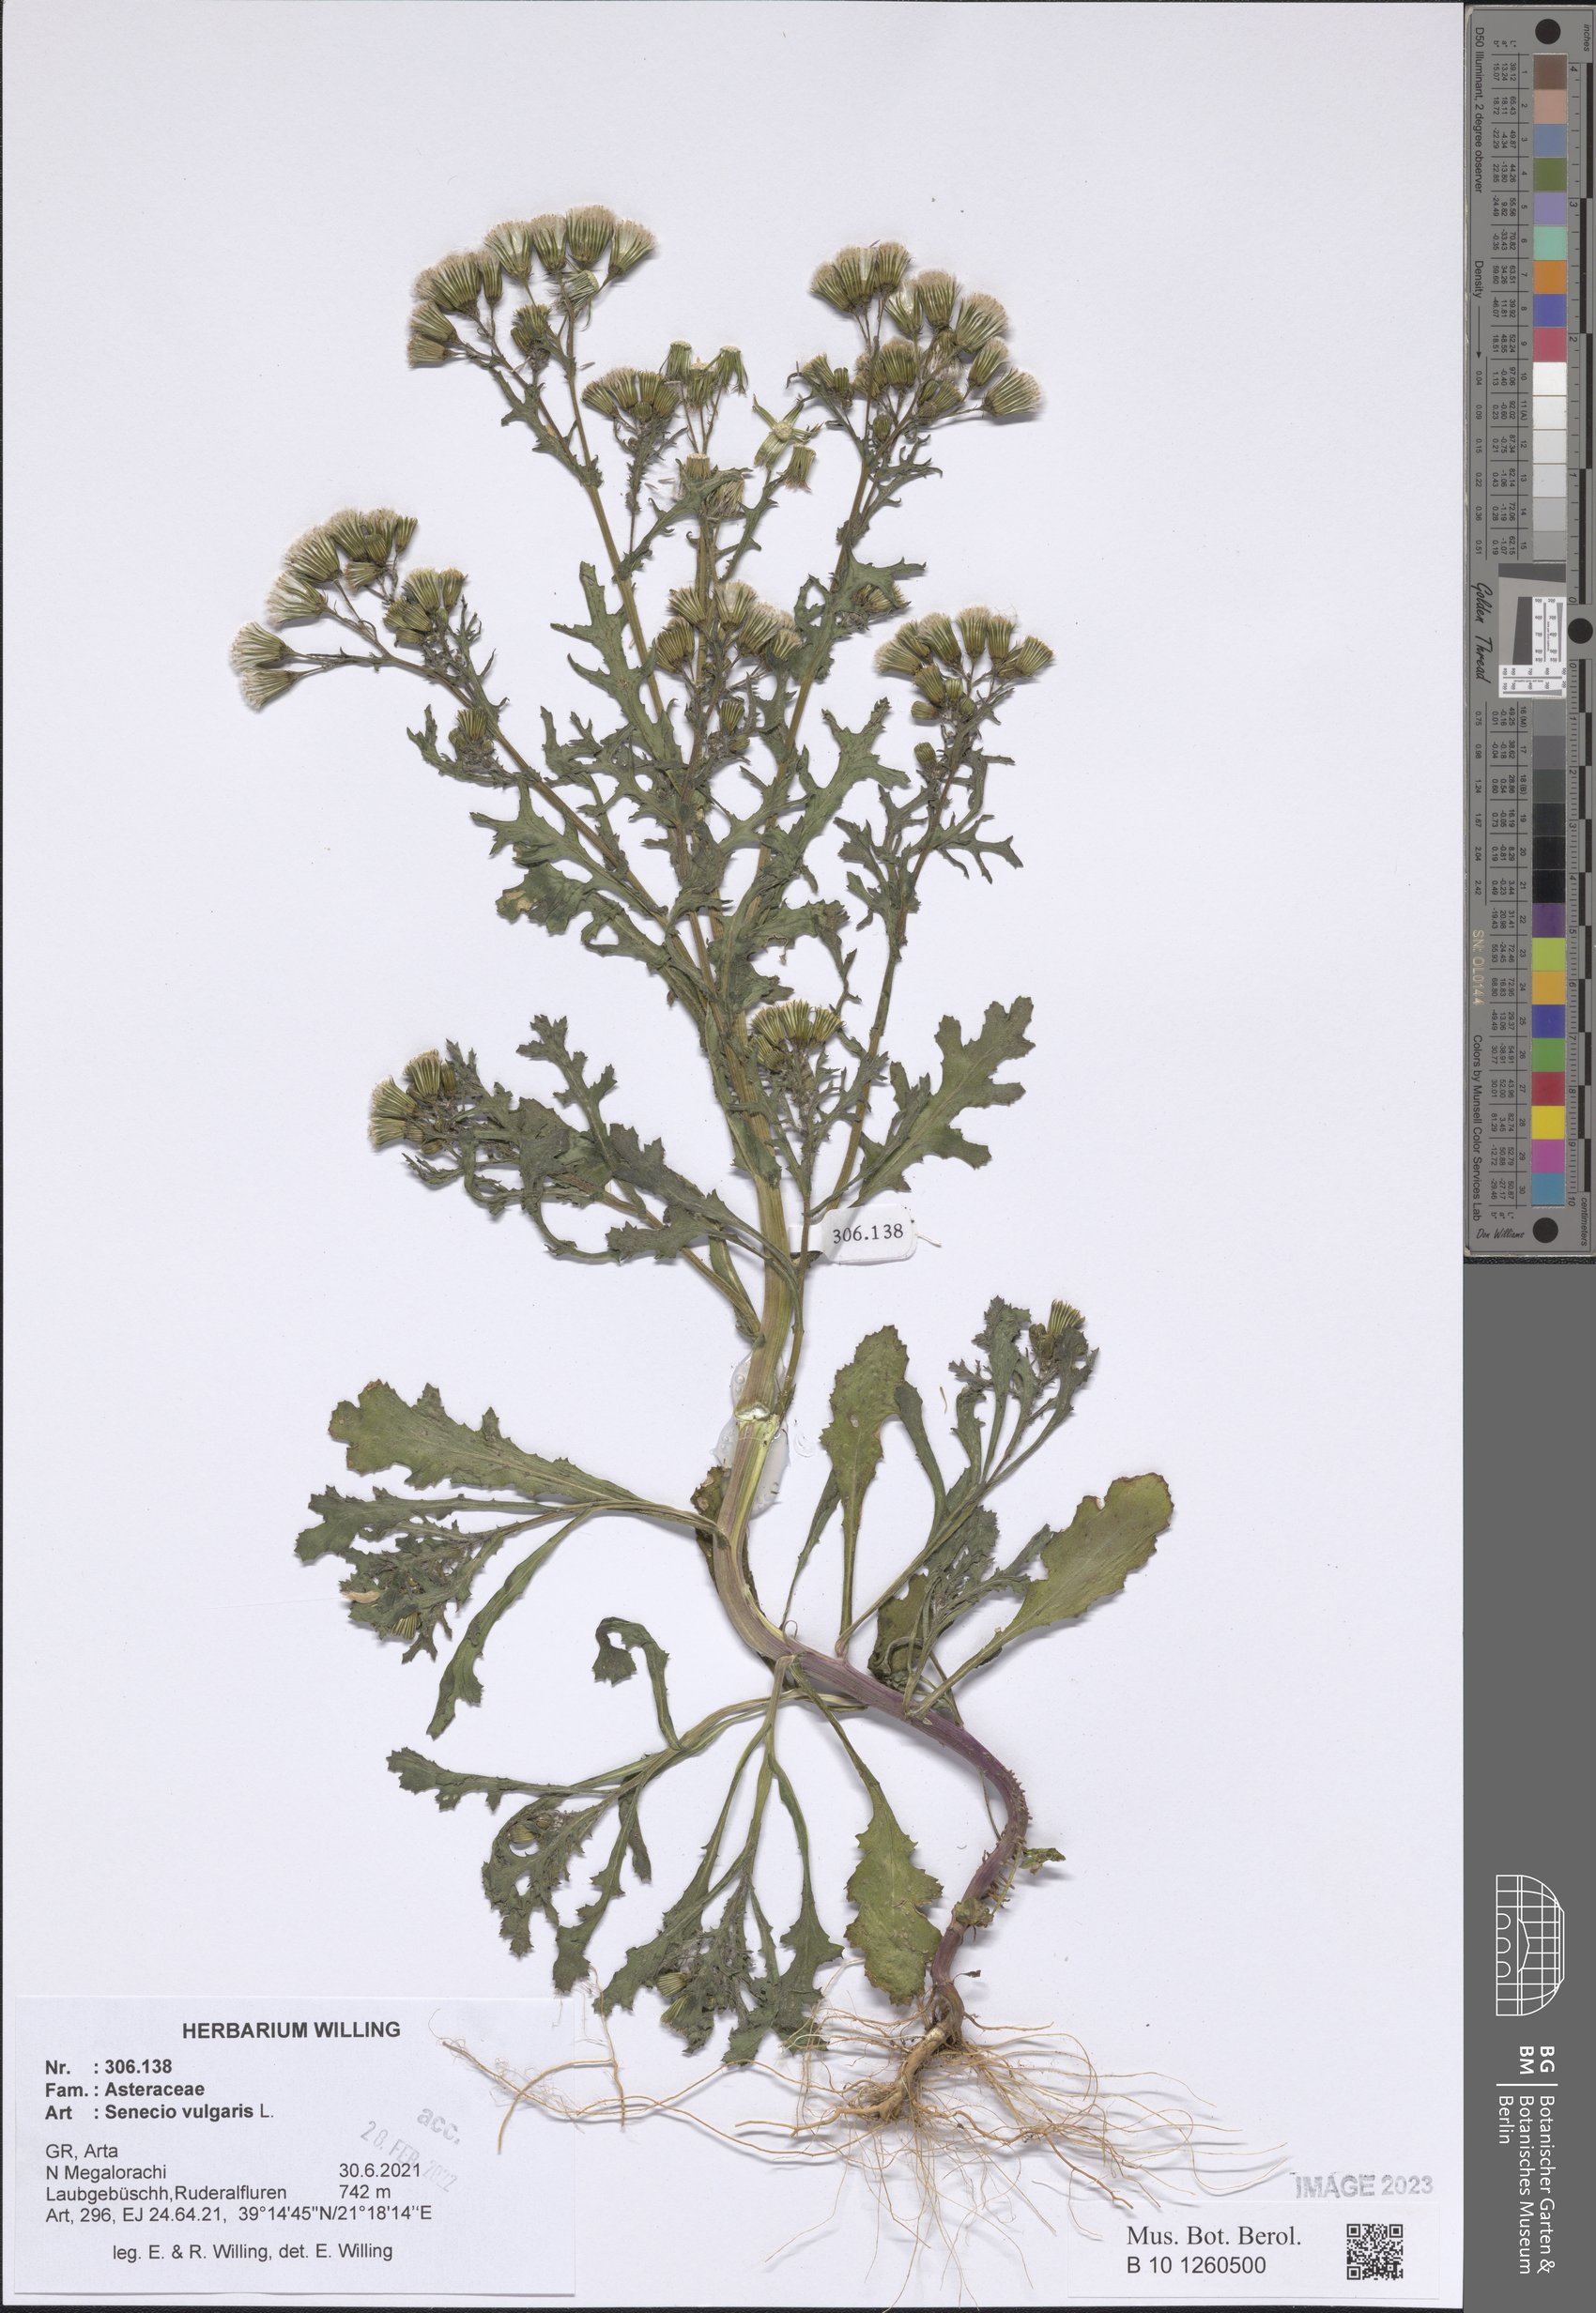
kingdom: Plantae
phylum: Tracheophyta
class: Magnoliopsida
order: Asterales
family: Asteraceae
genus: Senecio
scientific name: Senecio vulgaris
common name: Old-man-in-the-spring
